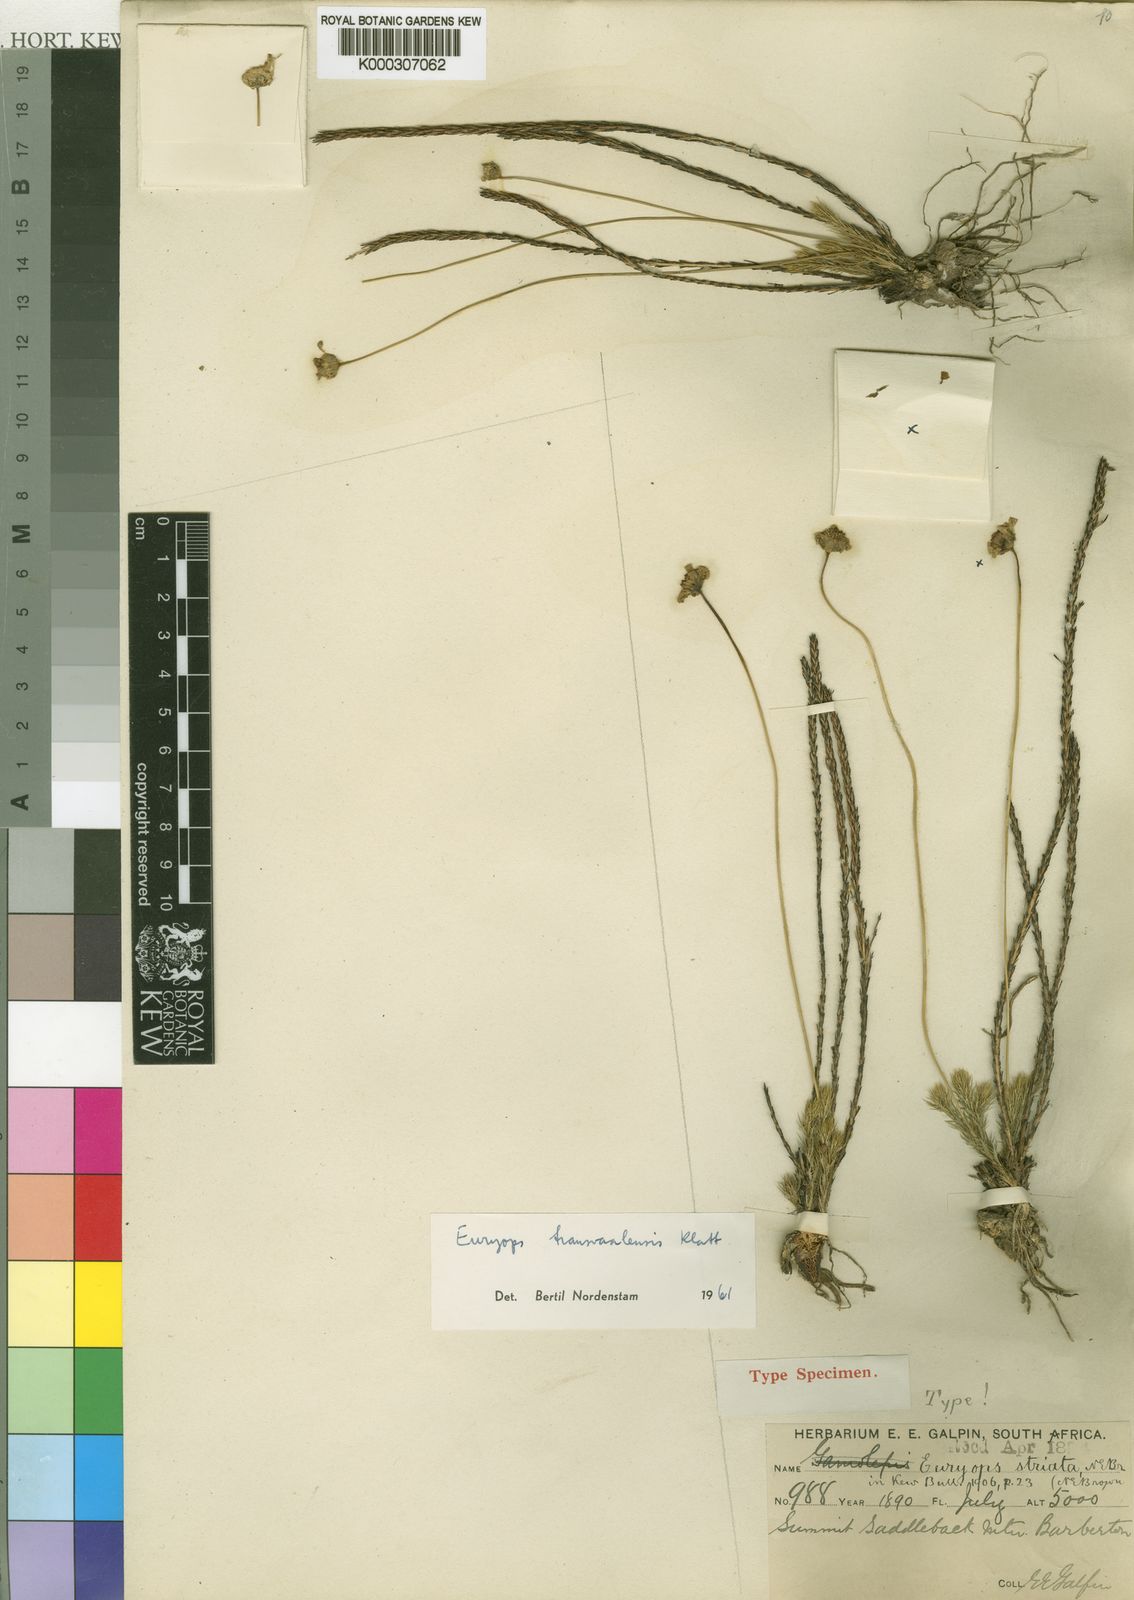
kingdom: Plantae
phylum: Tracheophyta
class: Magnoliopsida
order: Asterales
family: Asteraceae
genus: Euryops
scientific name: Euryops transvaalensis
